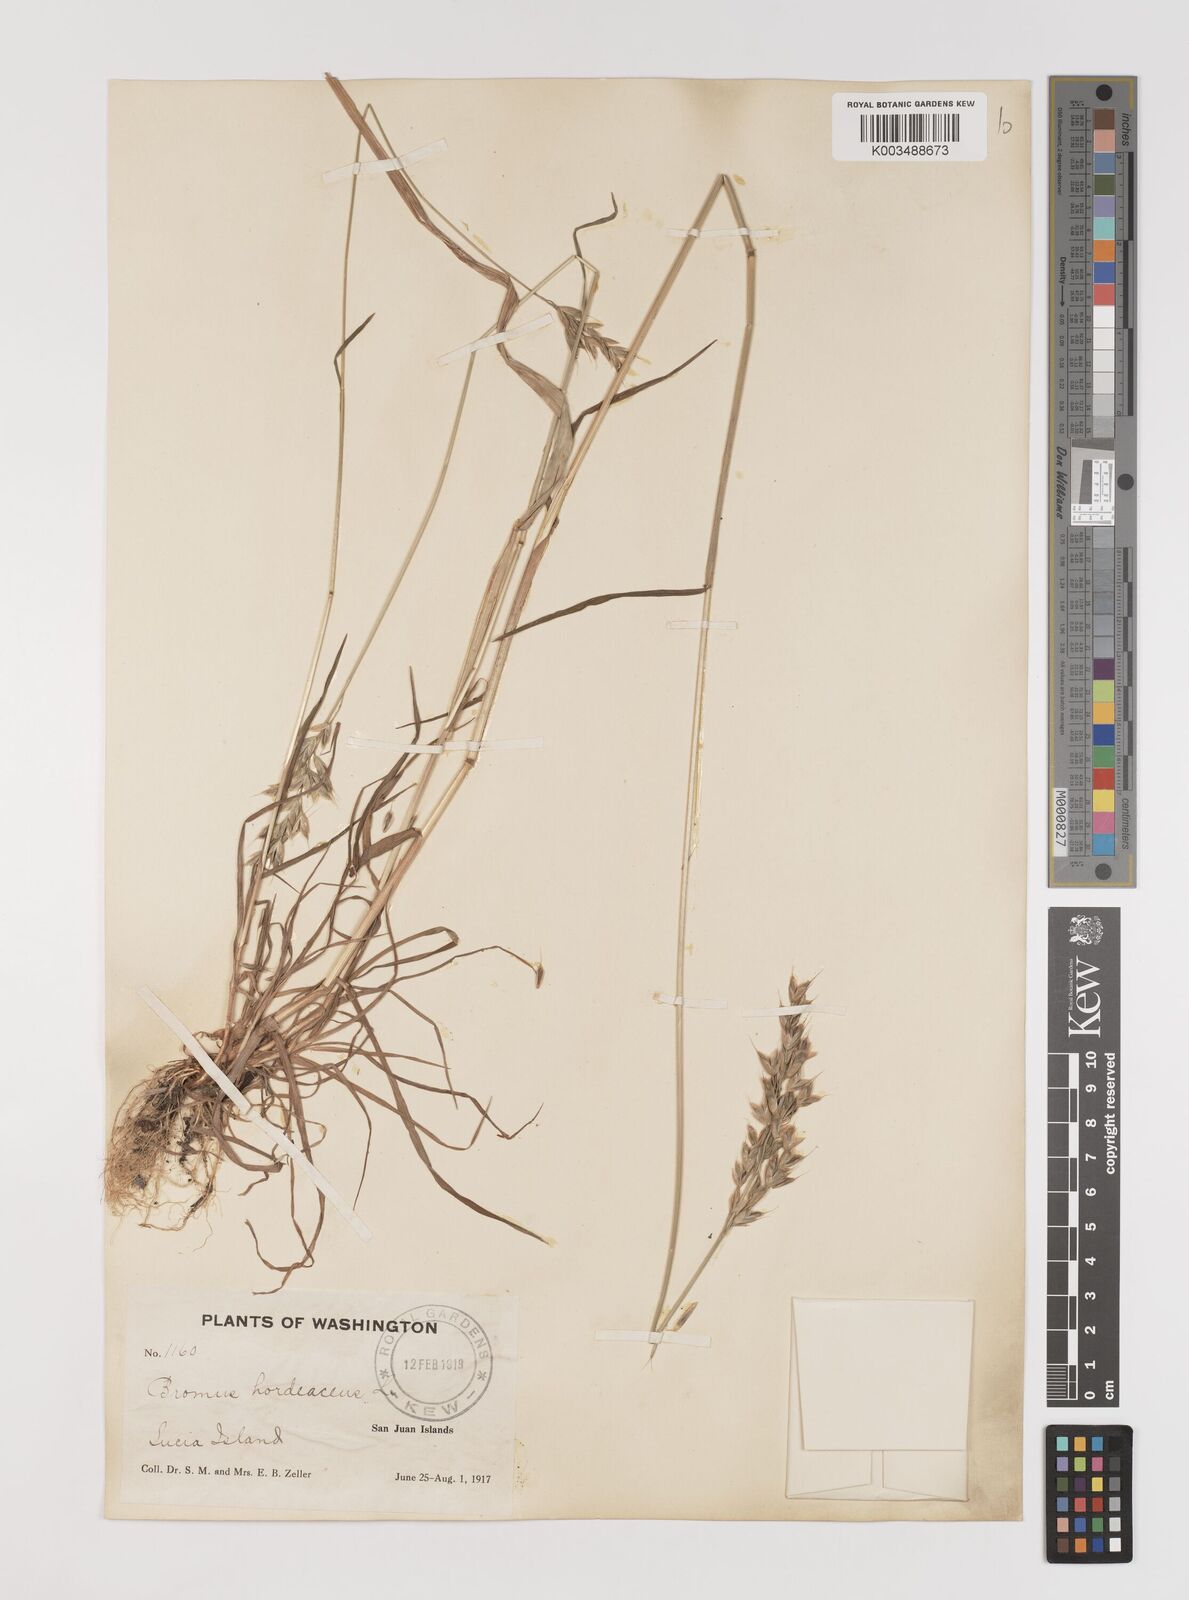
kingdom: Plantae
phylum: Tracheophyta
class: Liliopsida
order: Poales
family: Poaceae
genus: Bromus
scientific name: Bromus hordeaceus
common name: Soft brome
